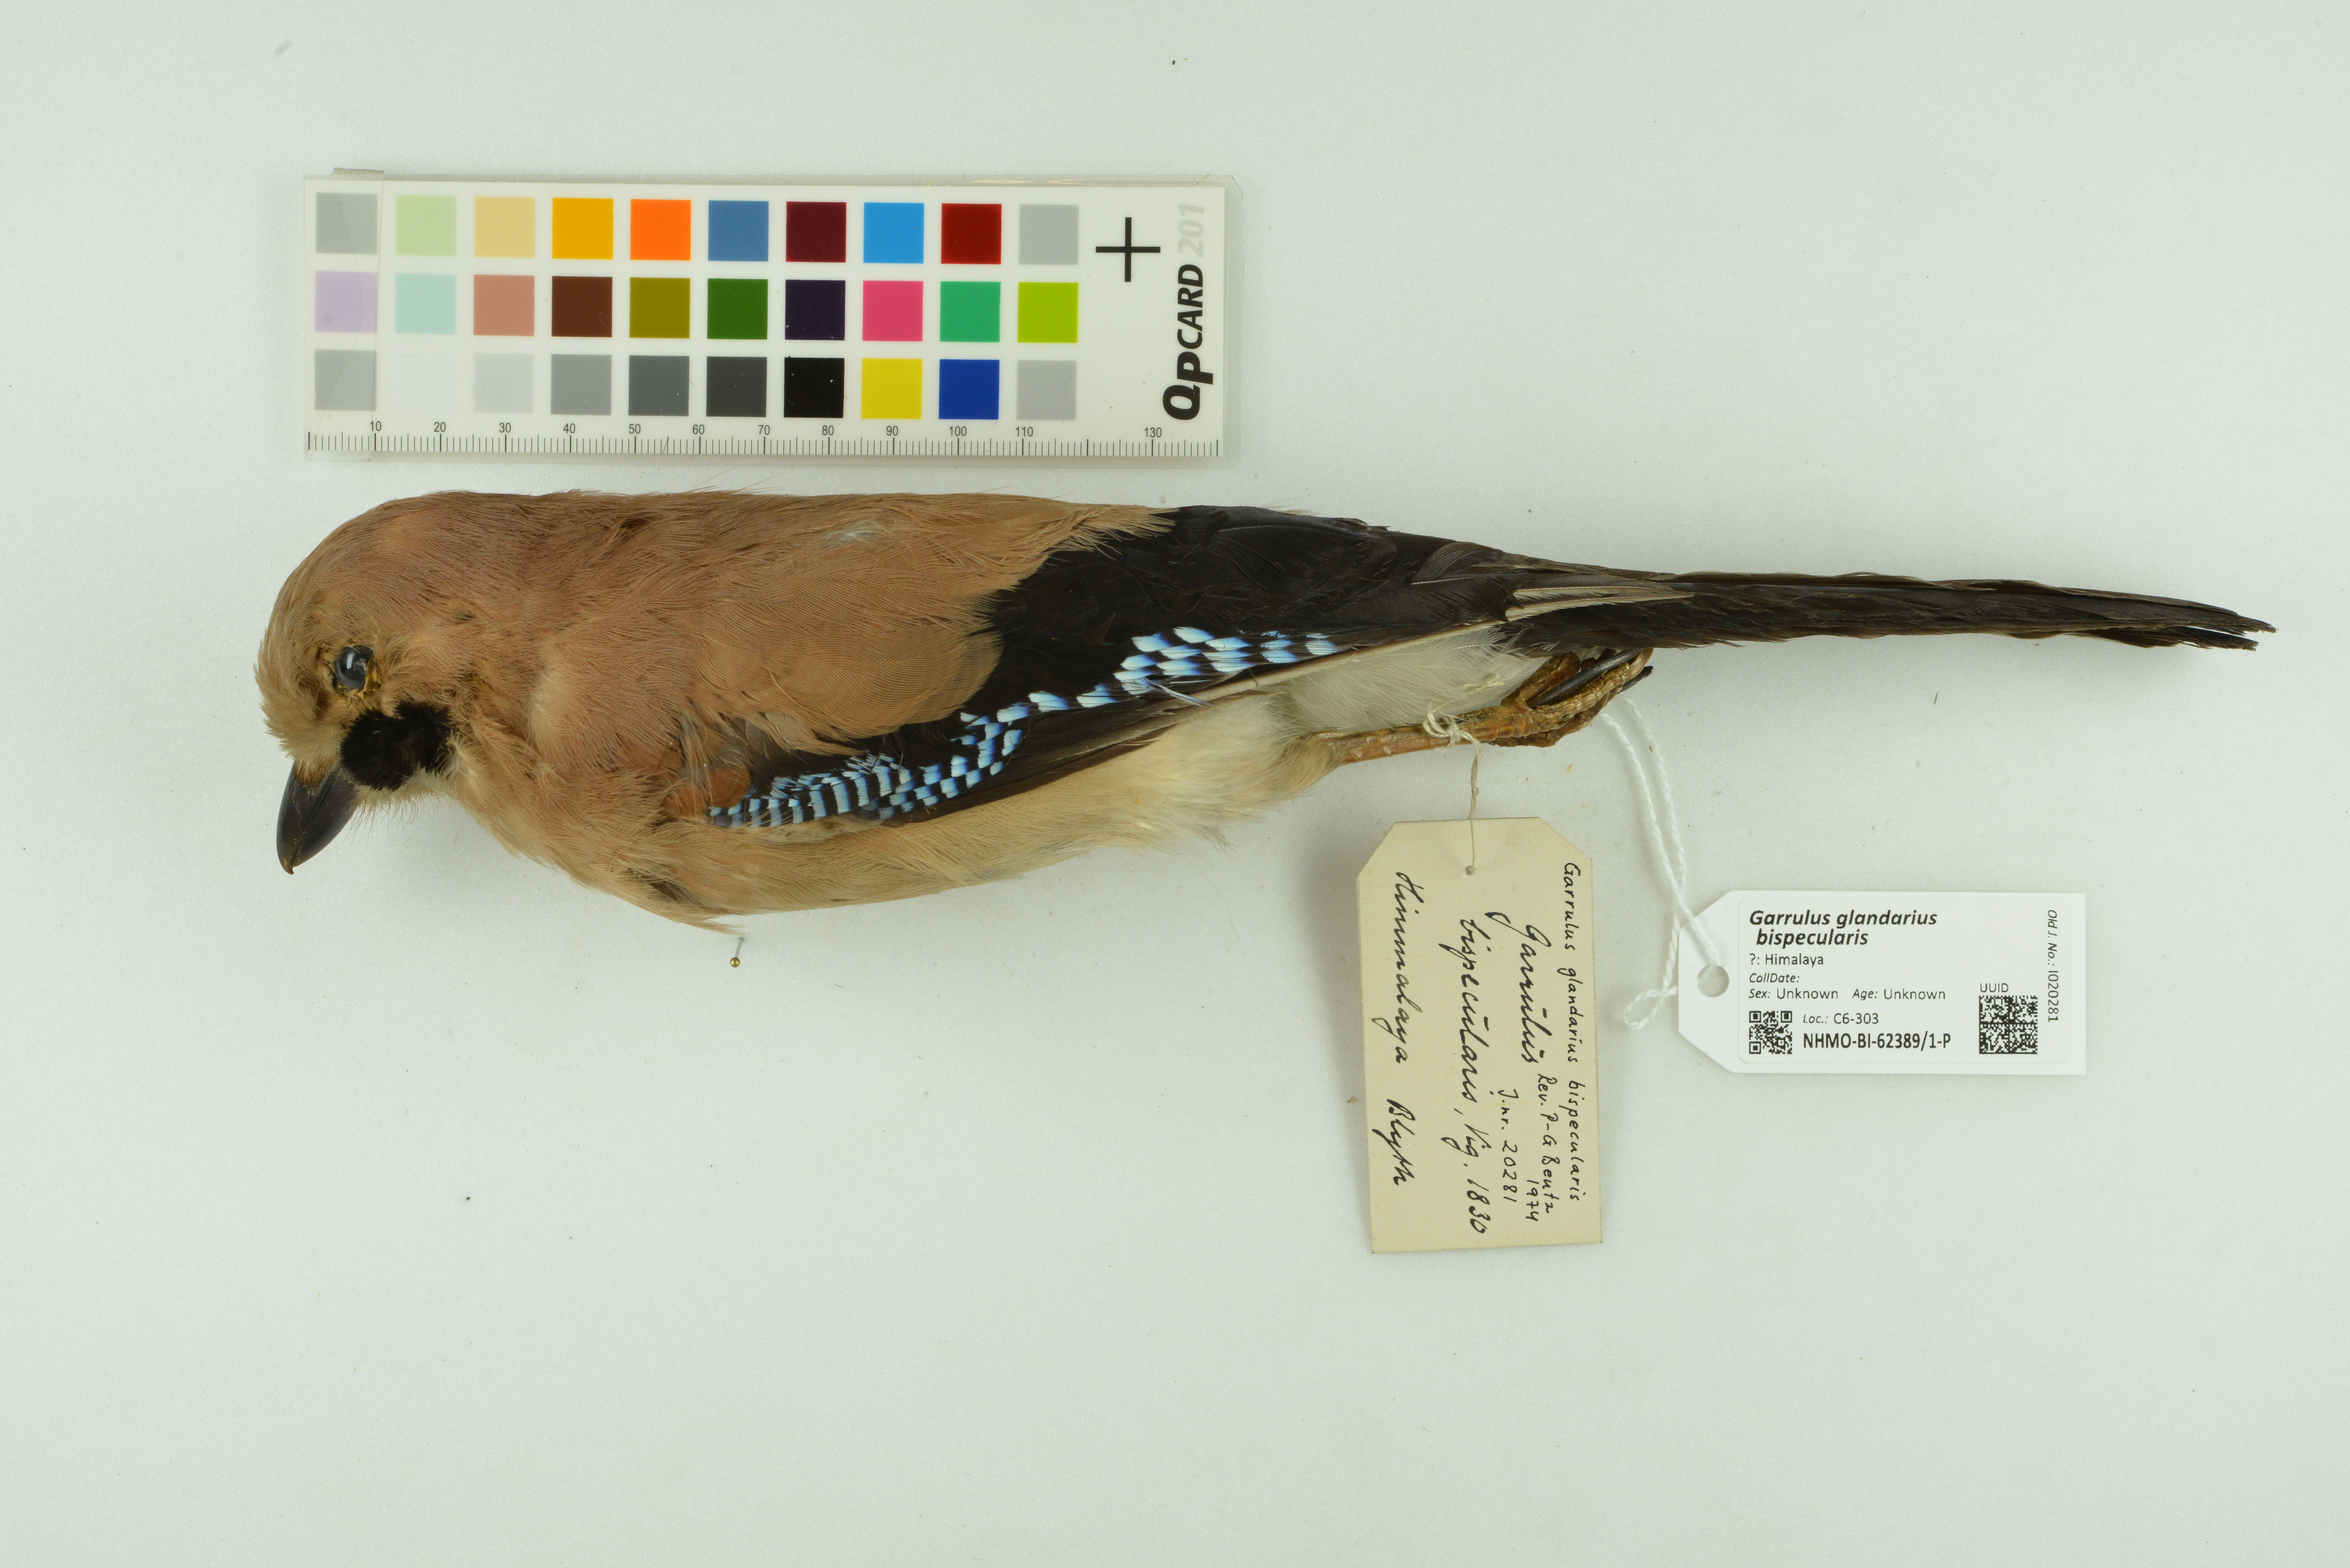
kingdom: Animalia
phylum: Chordata
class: Aves
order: Passeriformes
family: Corvidae
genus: Garrulus
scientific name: Garrulus glandarius
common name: Eurasian jay
